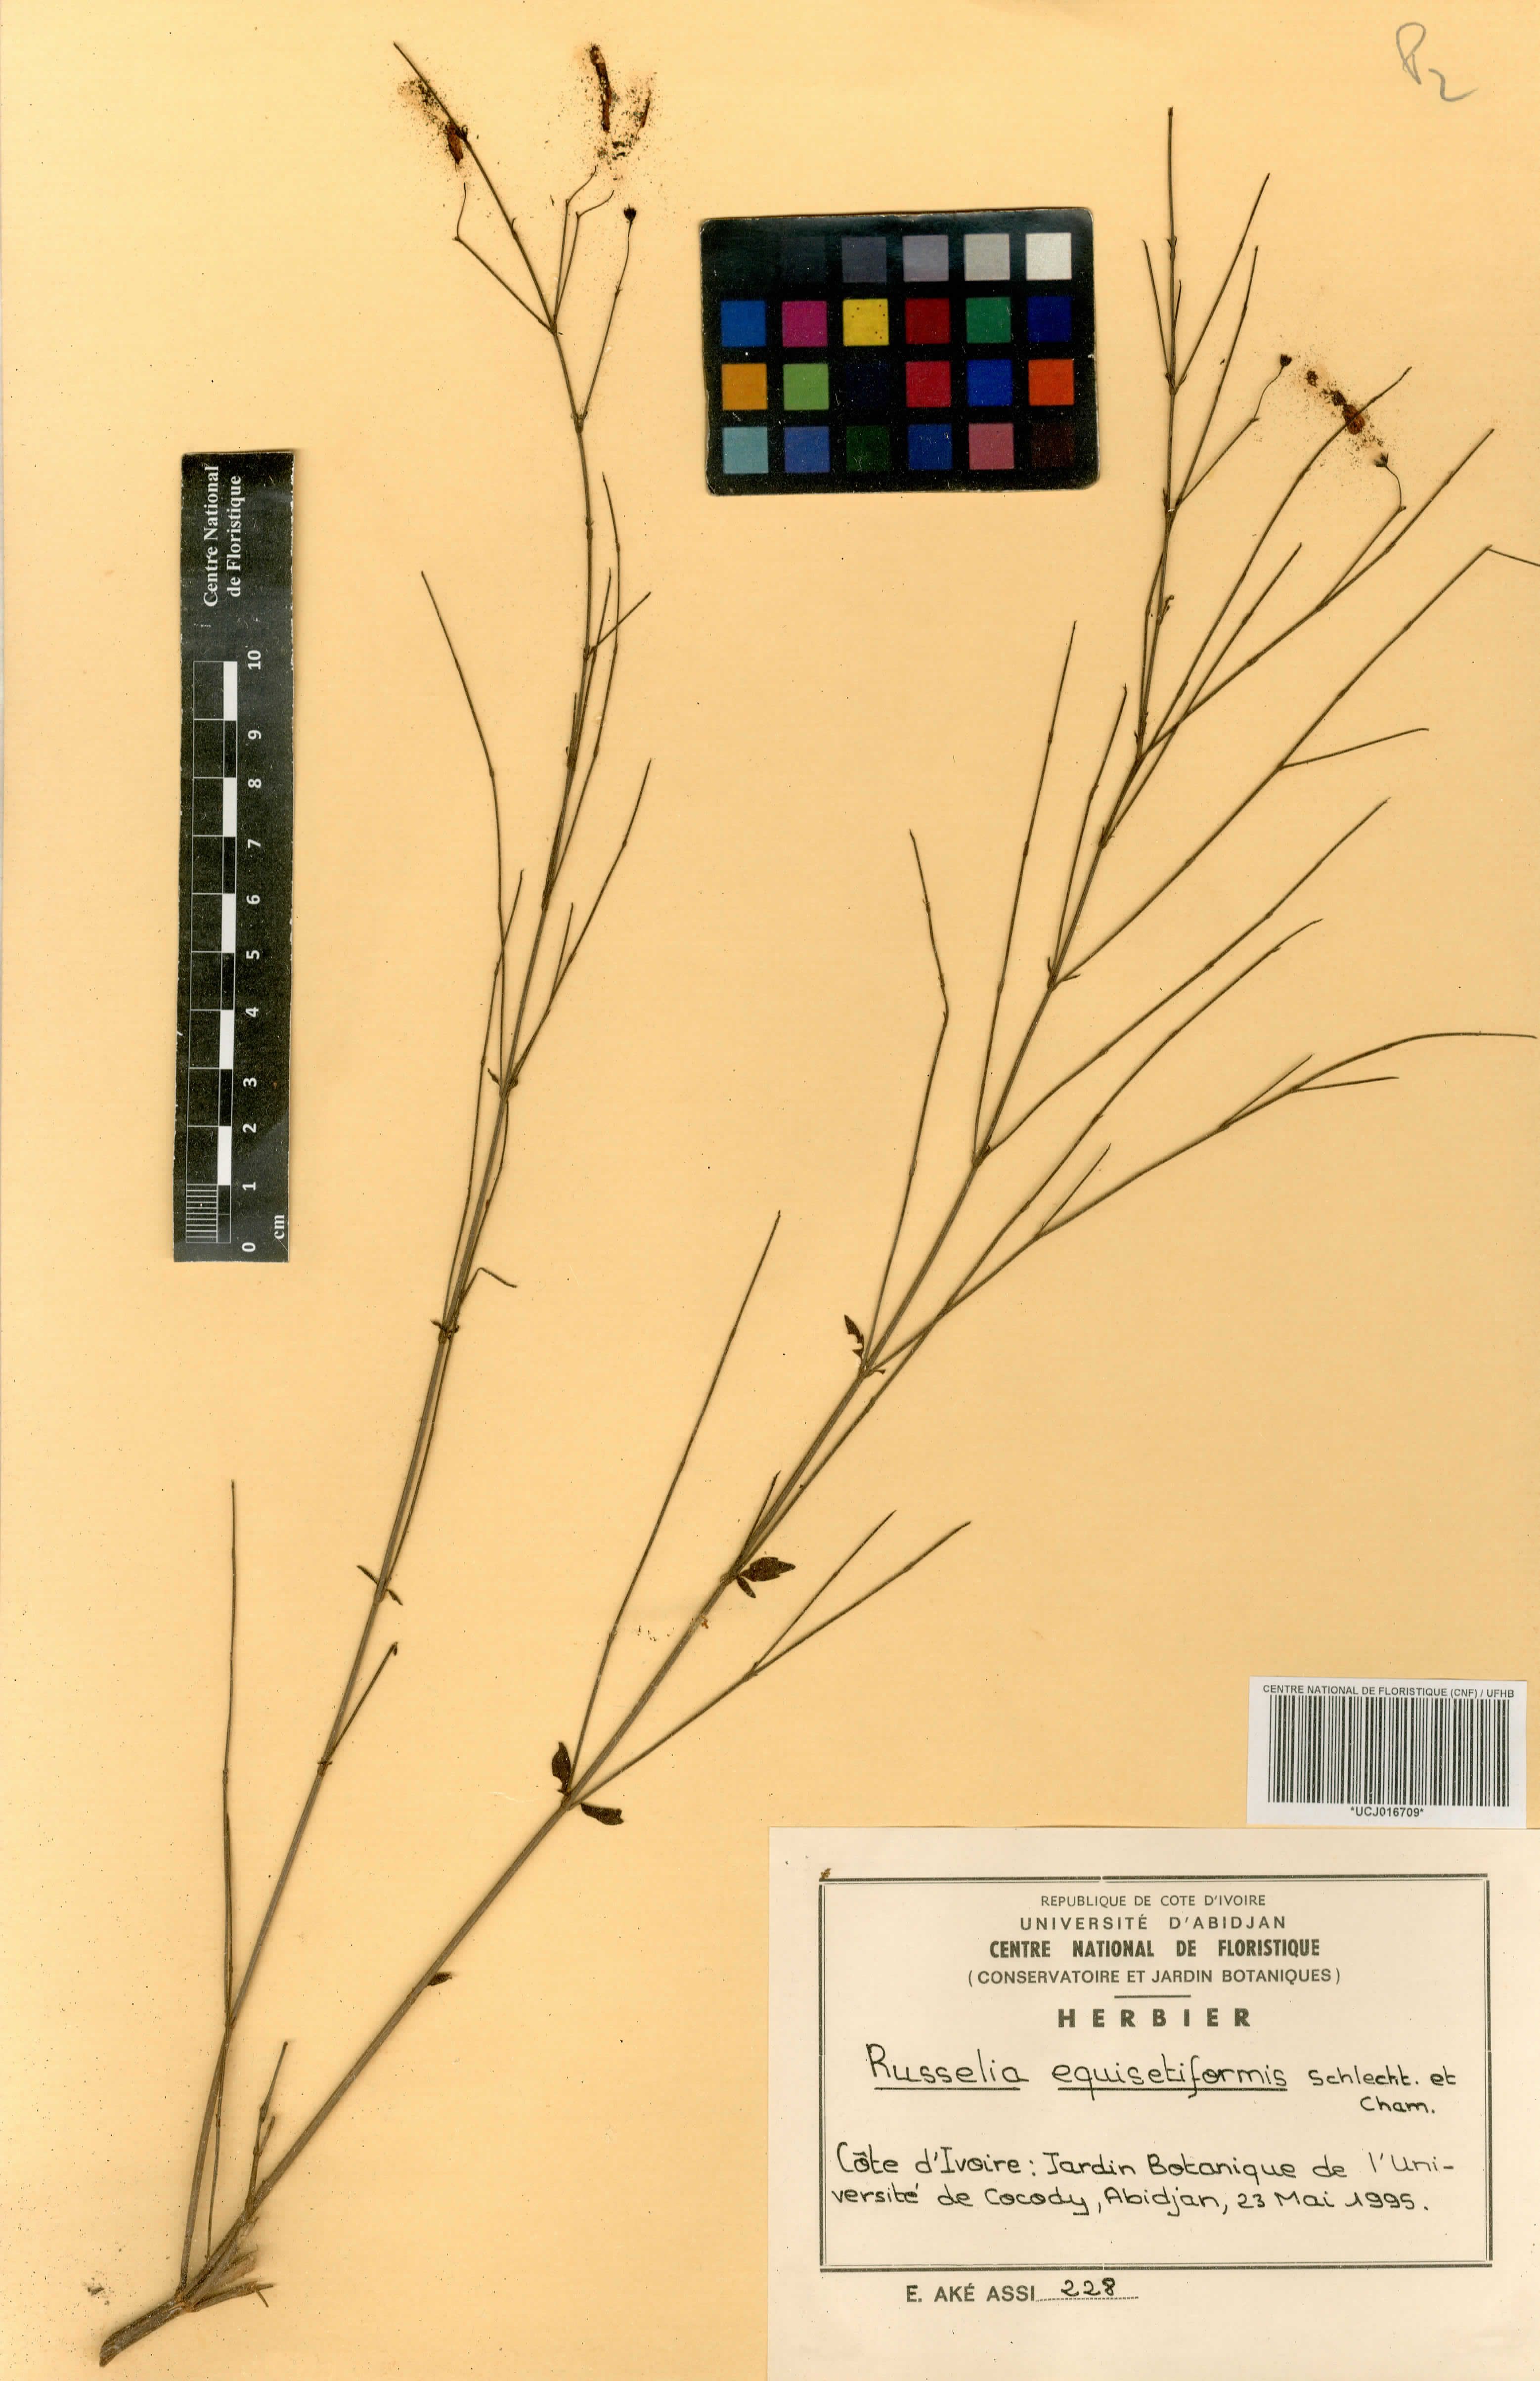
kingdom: Plantae
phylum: Tracheophyta
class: Magnoliopsida
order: Lamiales
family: Plantaginaceae
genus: Russelia
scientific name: Russelia equisetiformis
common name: Fountainbush
